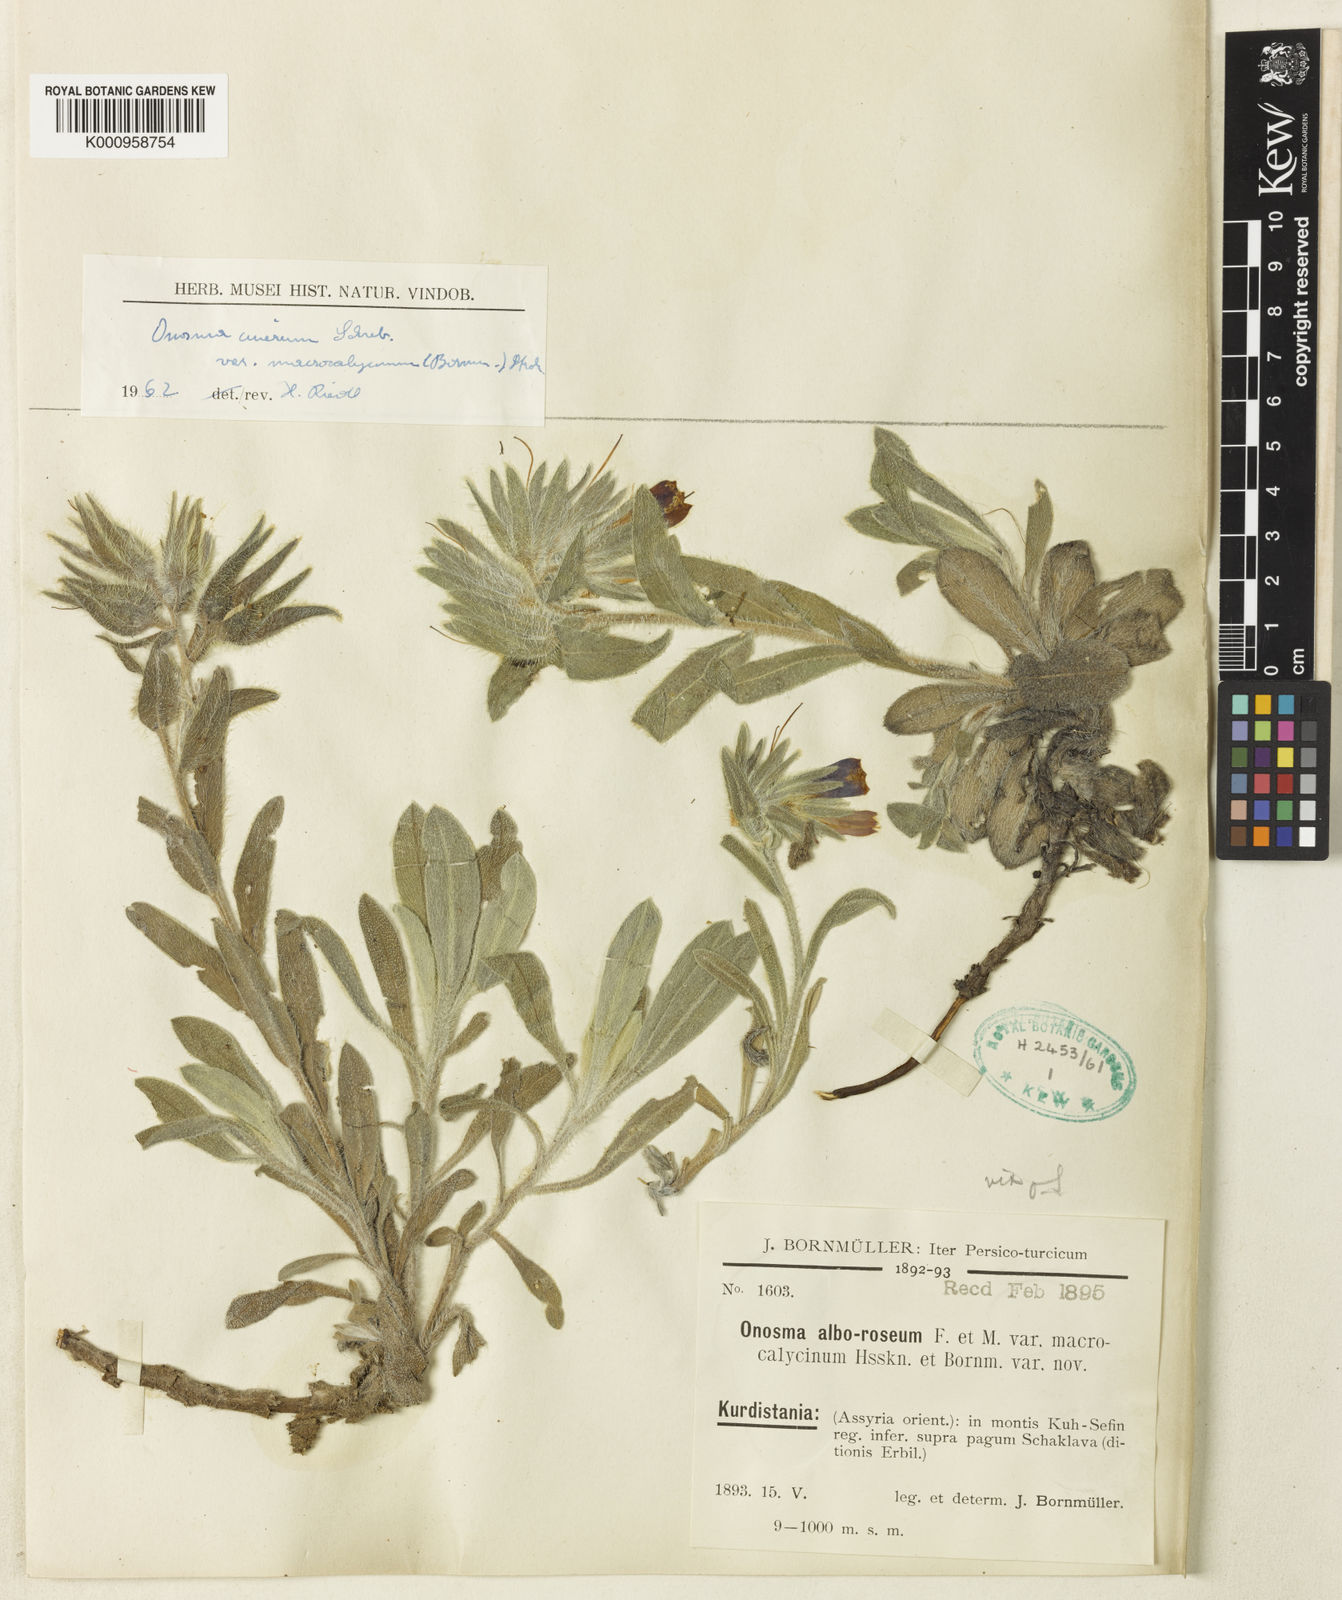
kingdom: Plantae
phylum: Tracheophyta
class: Magnoliopsida
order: Boraginales
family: Boraginaceae
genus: Onosma
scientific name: Onosma cinerea
